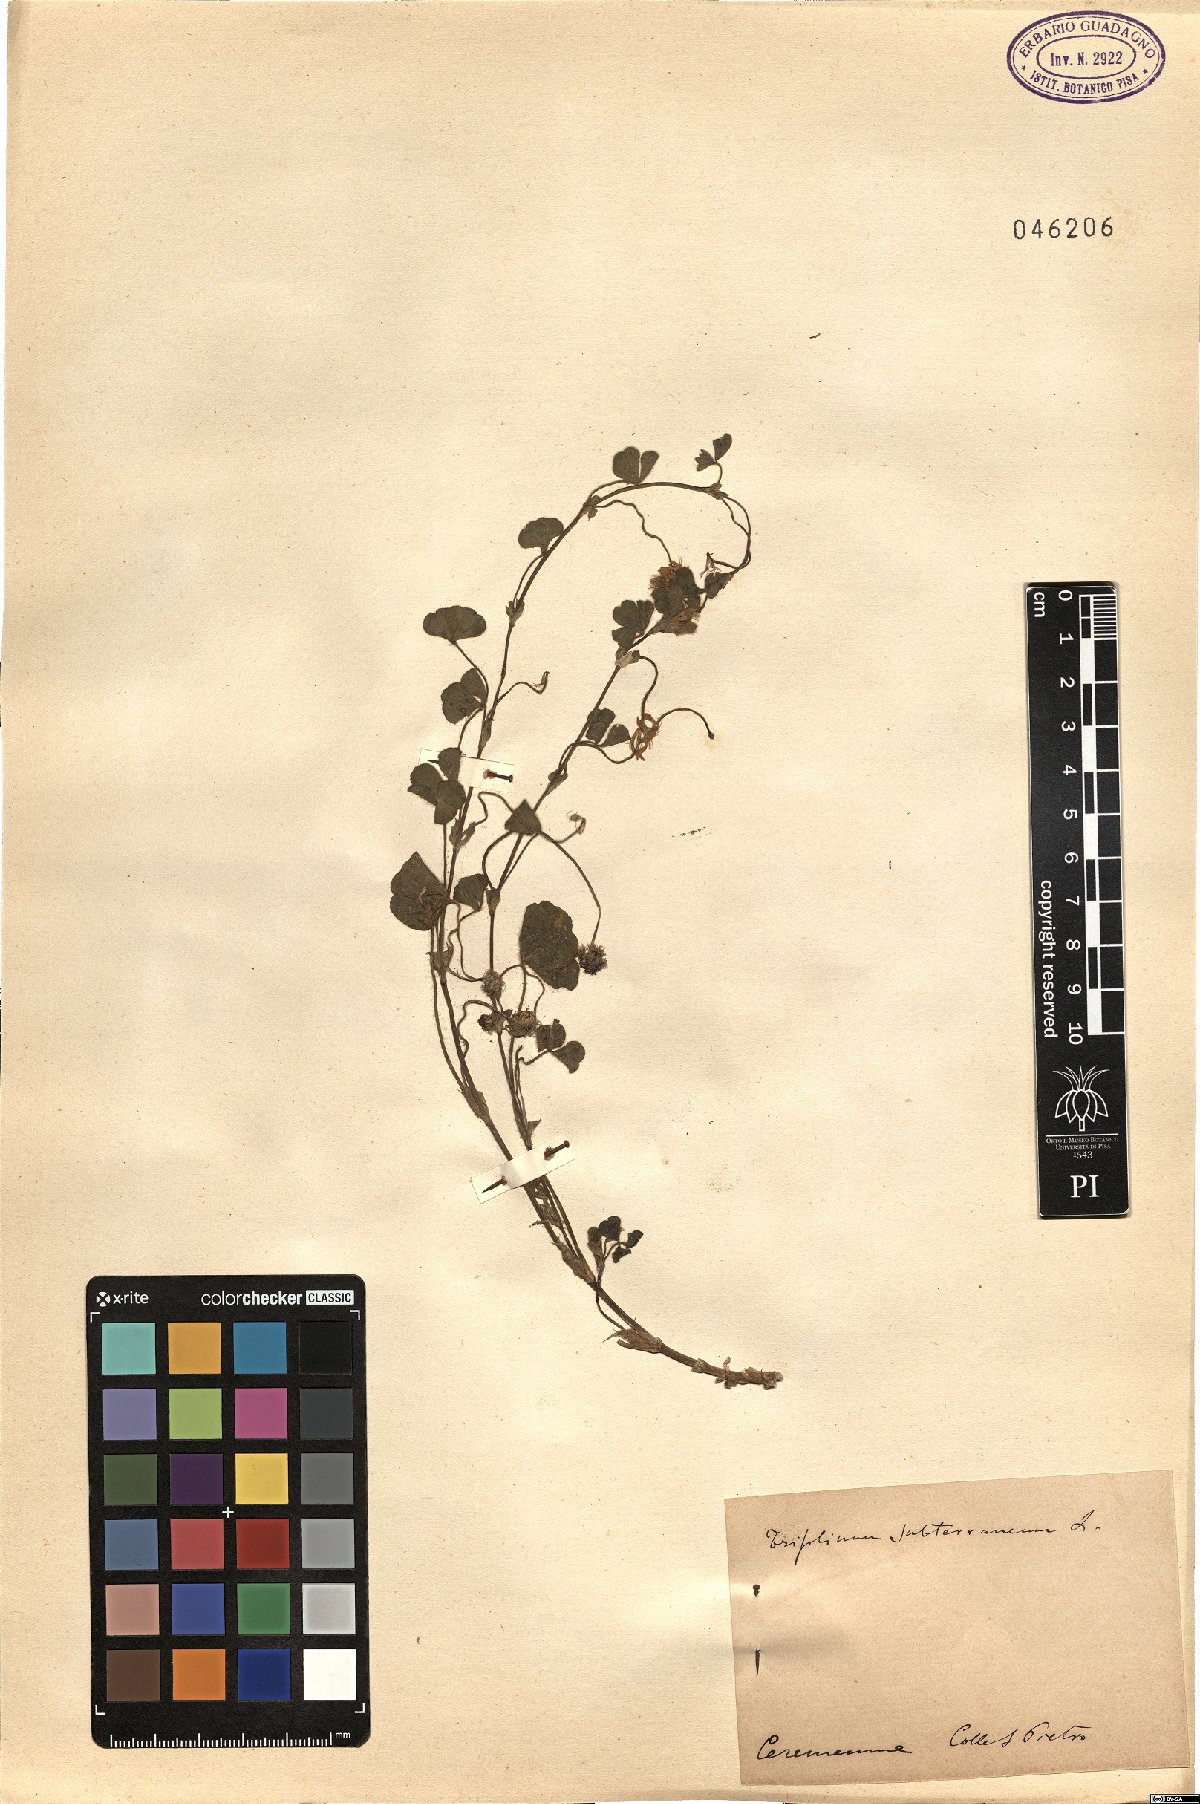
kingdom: Plantae
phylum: Tracheophyta
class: Magnoliopsida
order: Fabales
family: Fabaceae
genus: Trifolium
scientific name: Trifolium subterraneum
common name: Subterranean clover
